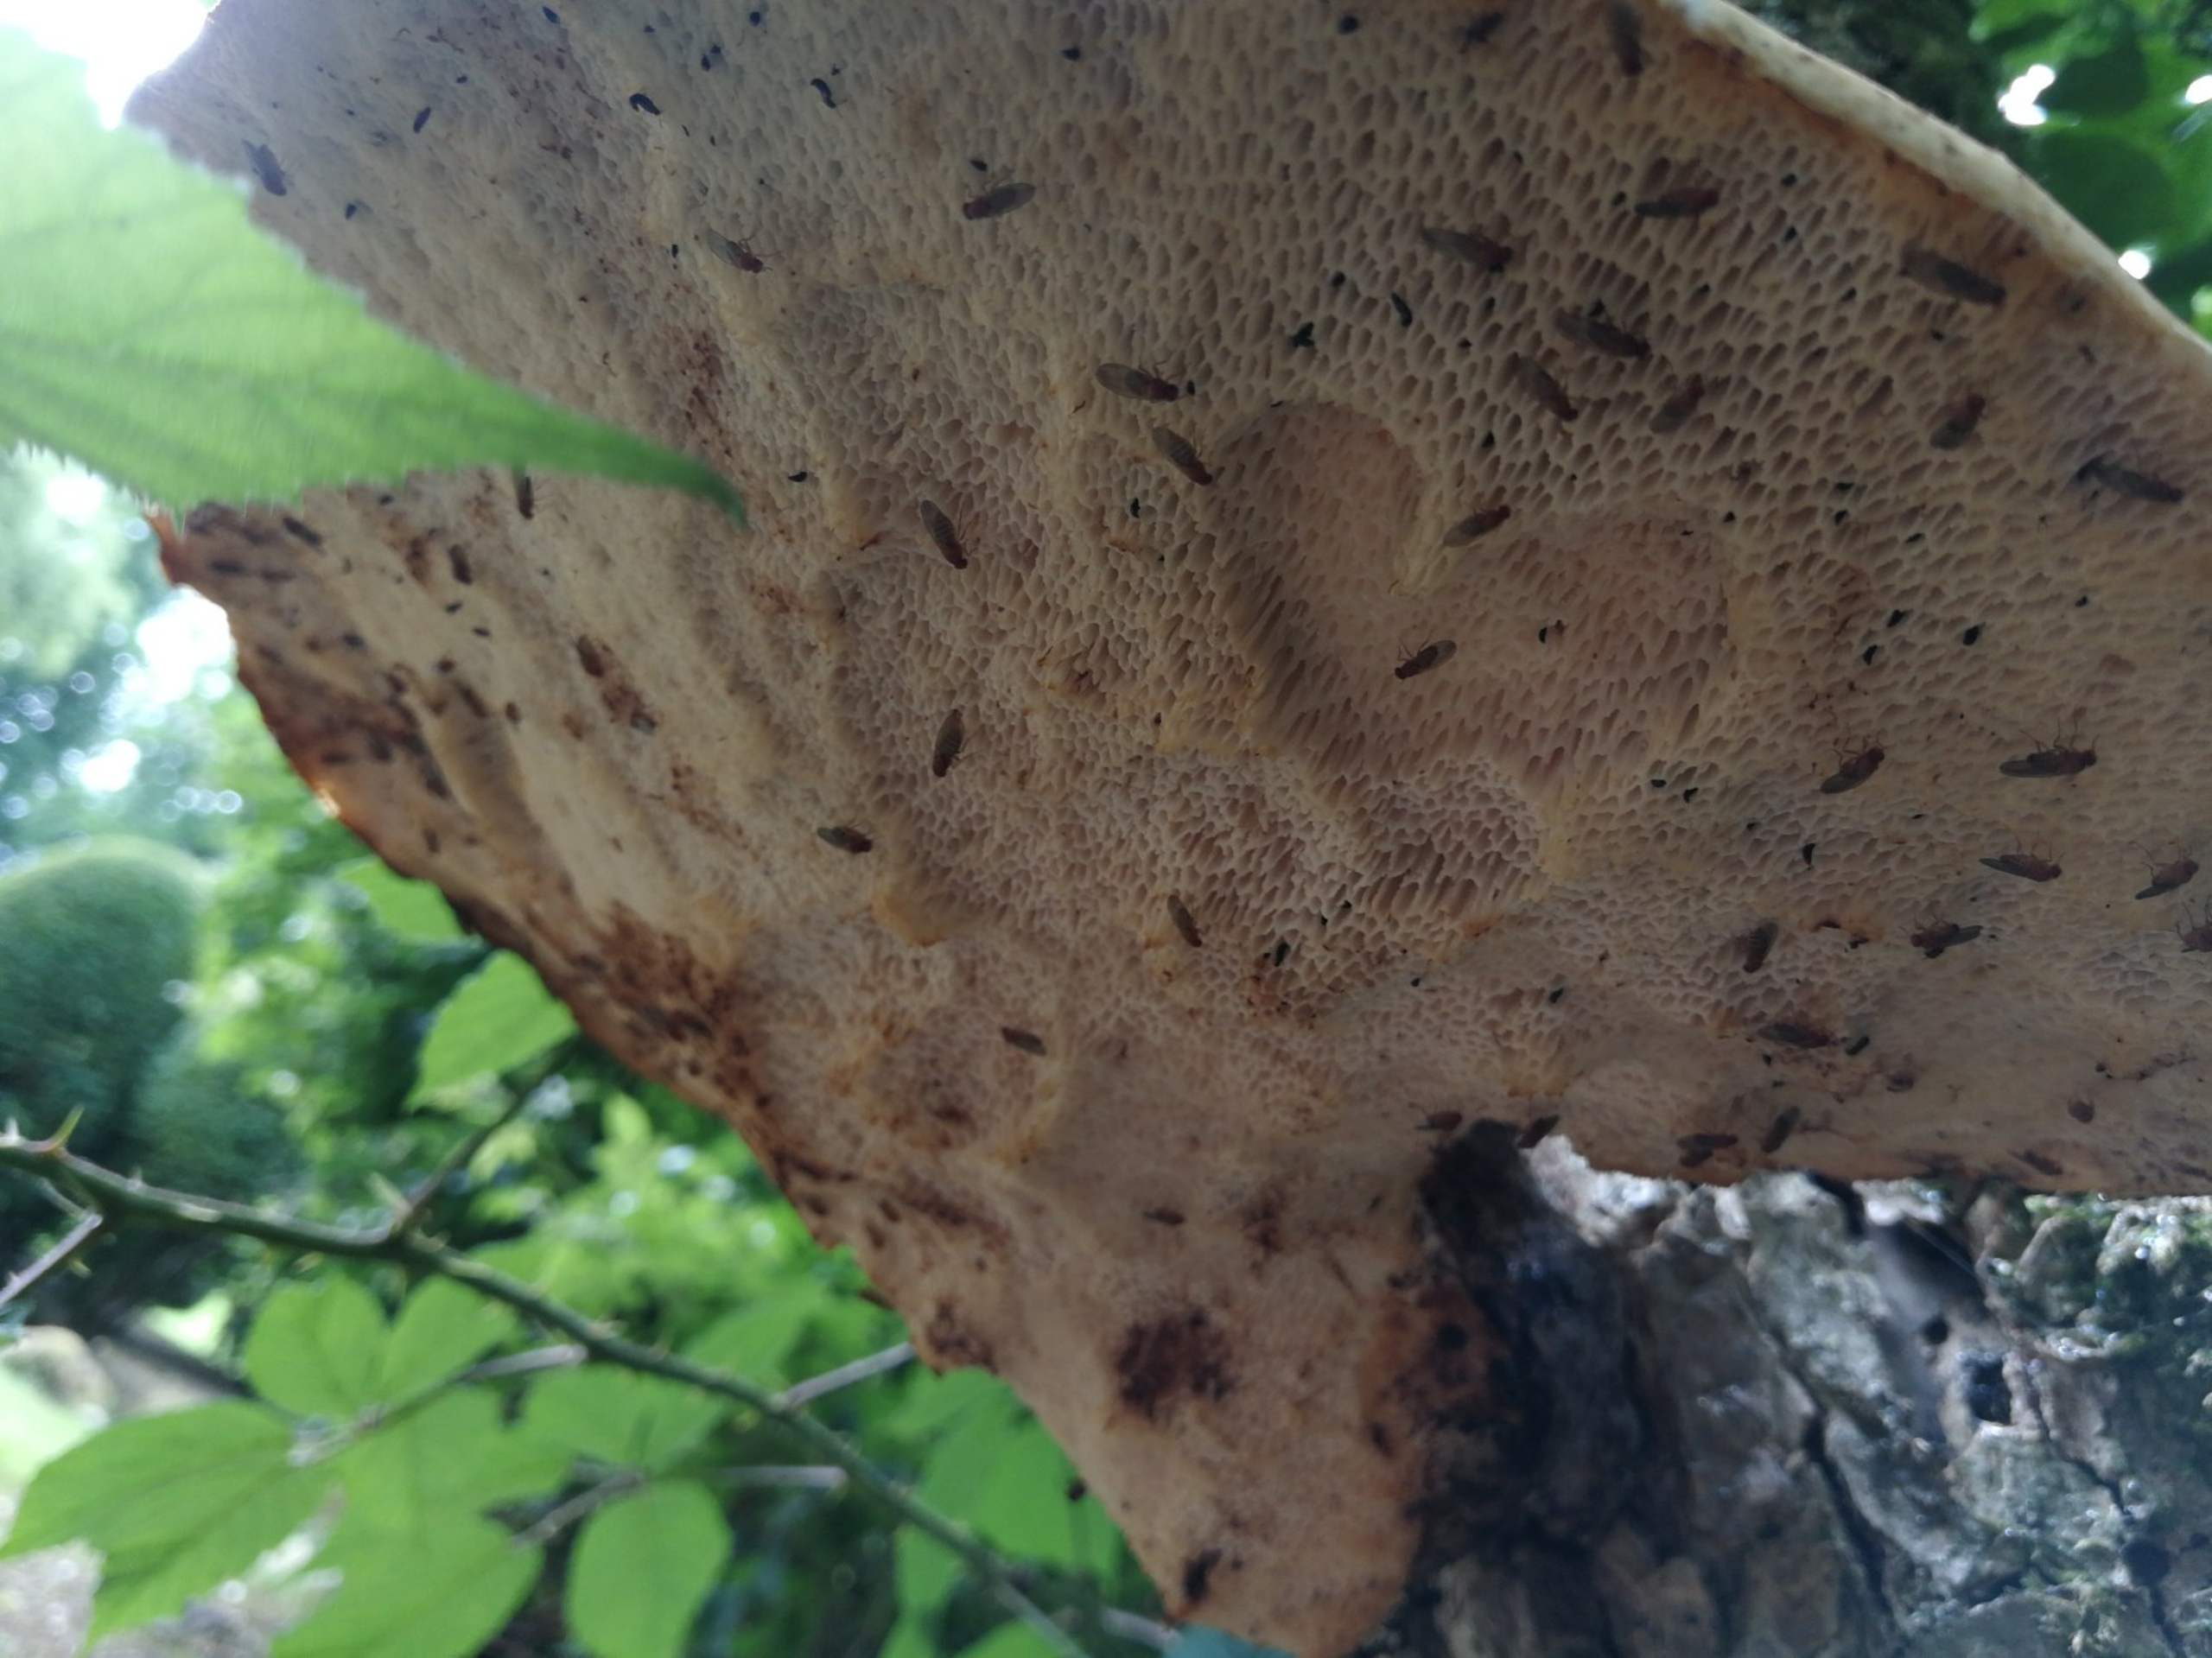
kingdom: Fungi
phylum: Basidiomycota
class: Agaricomycetes
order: Polyporales
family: Polyporaceae
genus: Cerioporus
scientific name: Cerioporus squamosus
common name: Skællet stilkporesvamp
